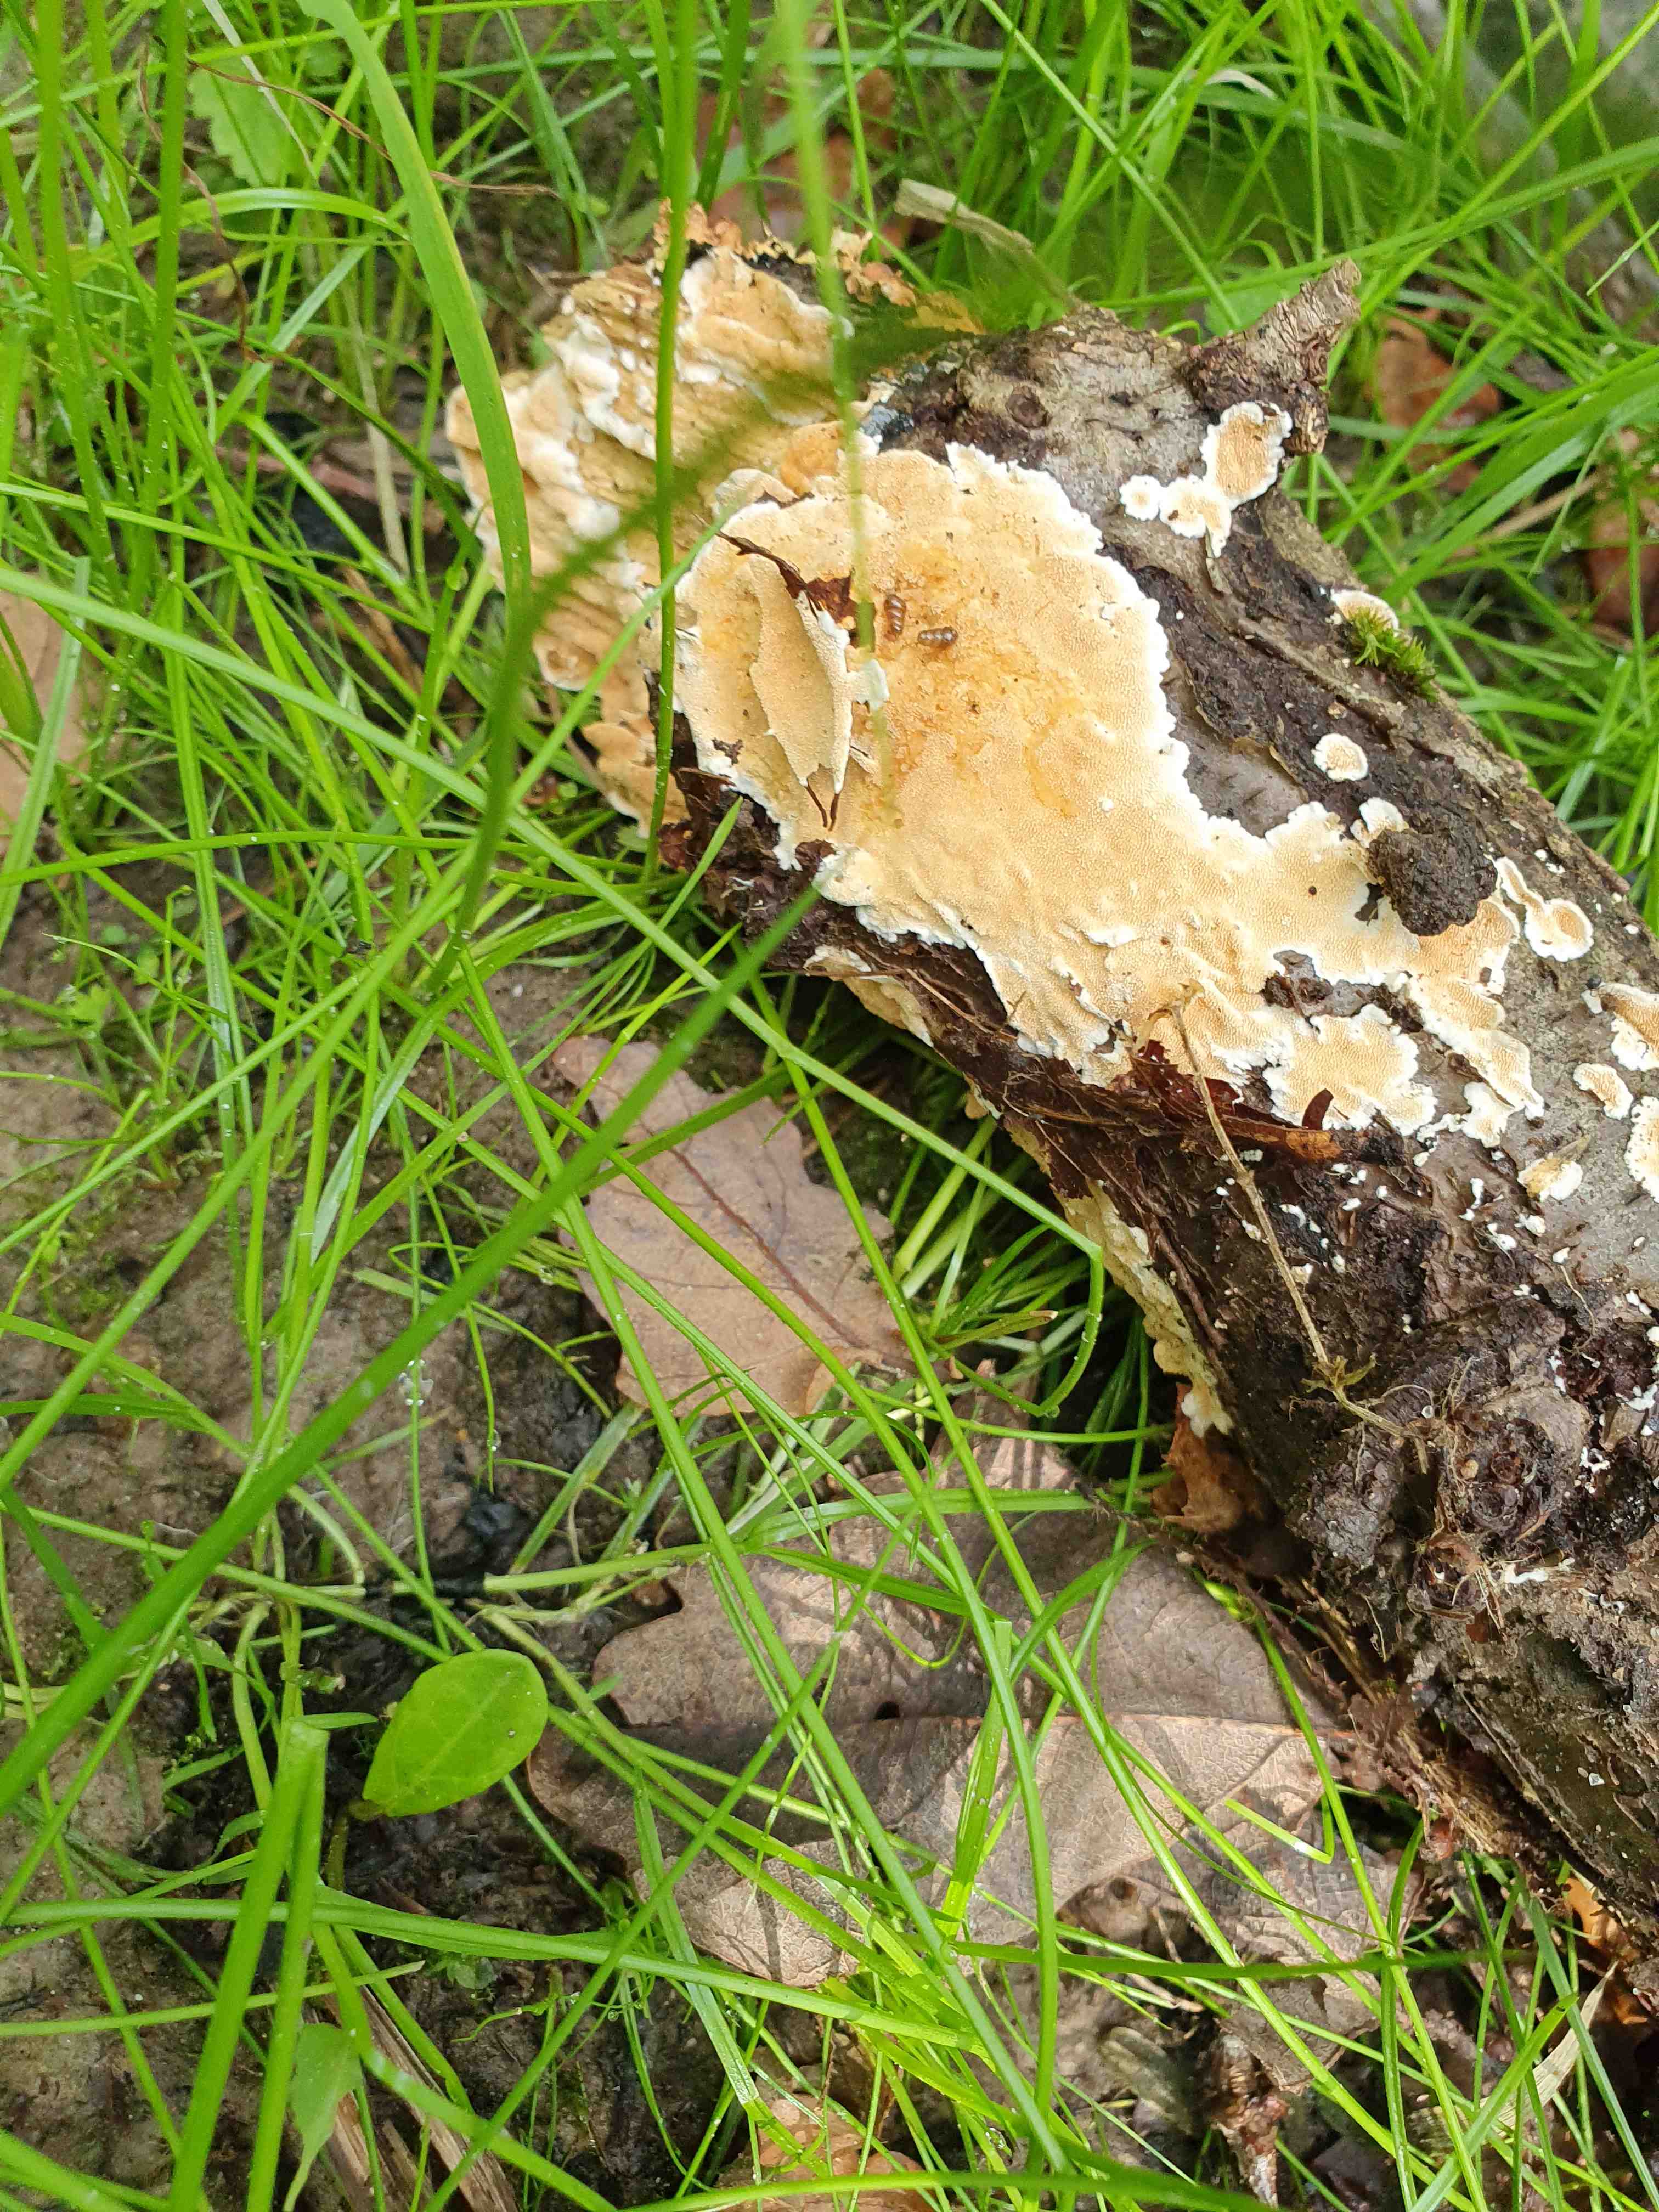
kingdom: Fungi
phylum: Basidiomycota
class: Agaricomycetes
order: Polyporales
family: Steccherinaceae
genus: Steccherinum
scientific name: Steccherinum ochraceum
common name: almindelig skønpig
